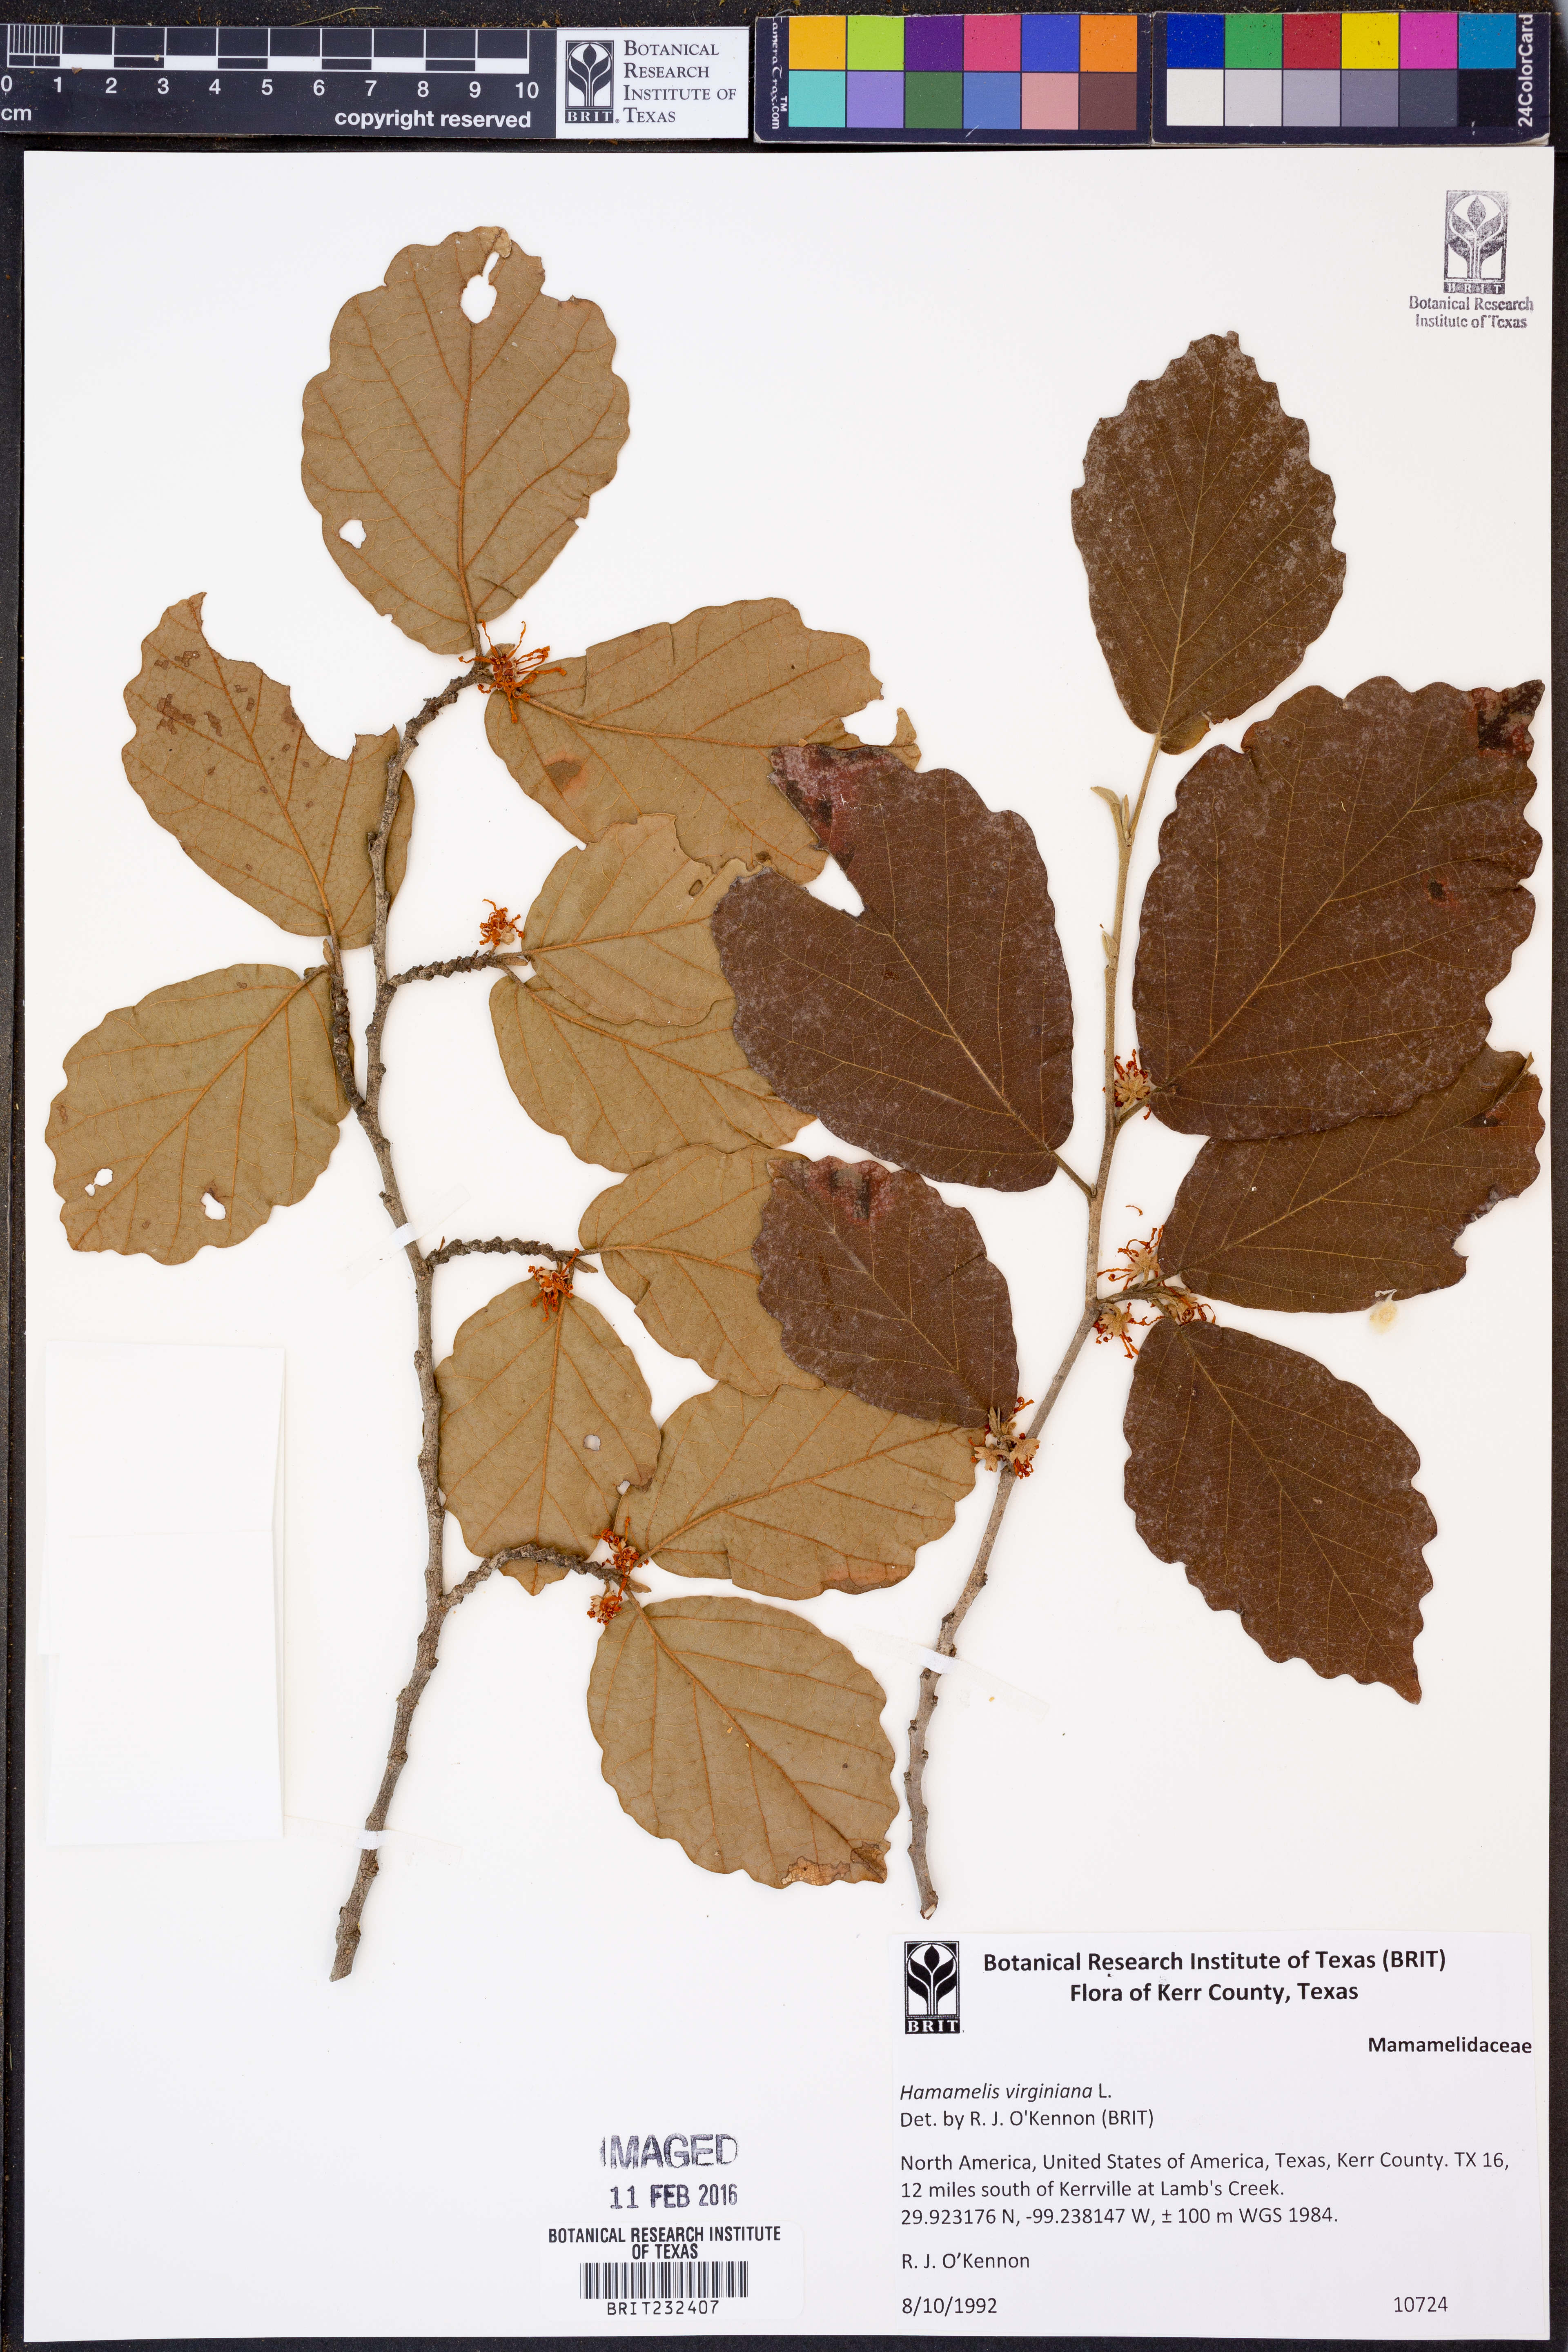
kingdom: Plantae
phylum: Tracheophyta
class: Magnoliopsida
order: Saxifragales
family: Hamamelidaceae
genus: Hamamelis
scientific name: Hamamelis virginiana
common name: Witch-hazel
